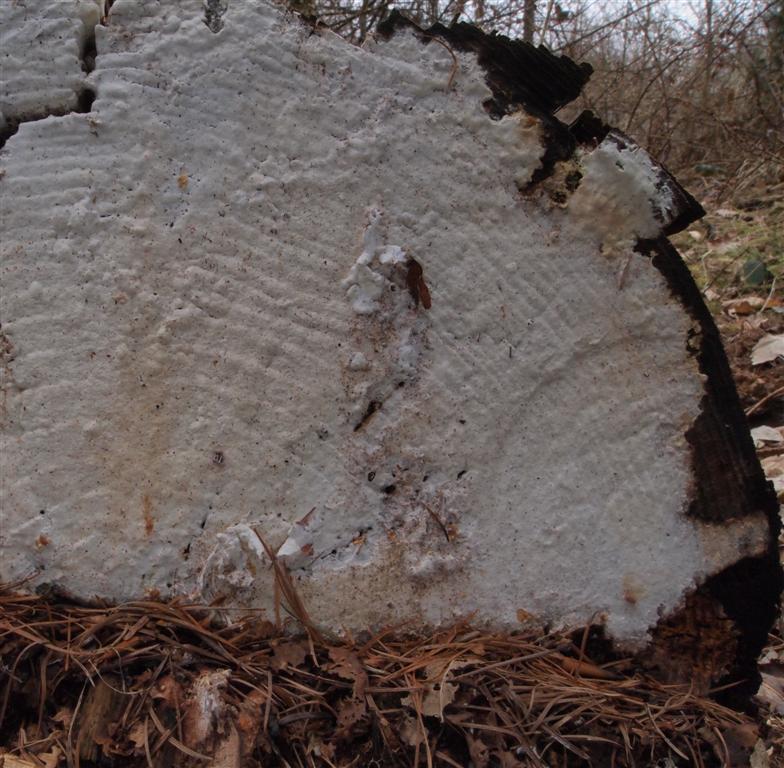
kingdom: Fungi
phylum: Basidiomycota
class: Agaricomycetes
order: Polyporales
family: Fomitopsidaceae
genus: Daedalea
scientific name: Daedalea xantha
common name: gul sejporesvamp
